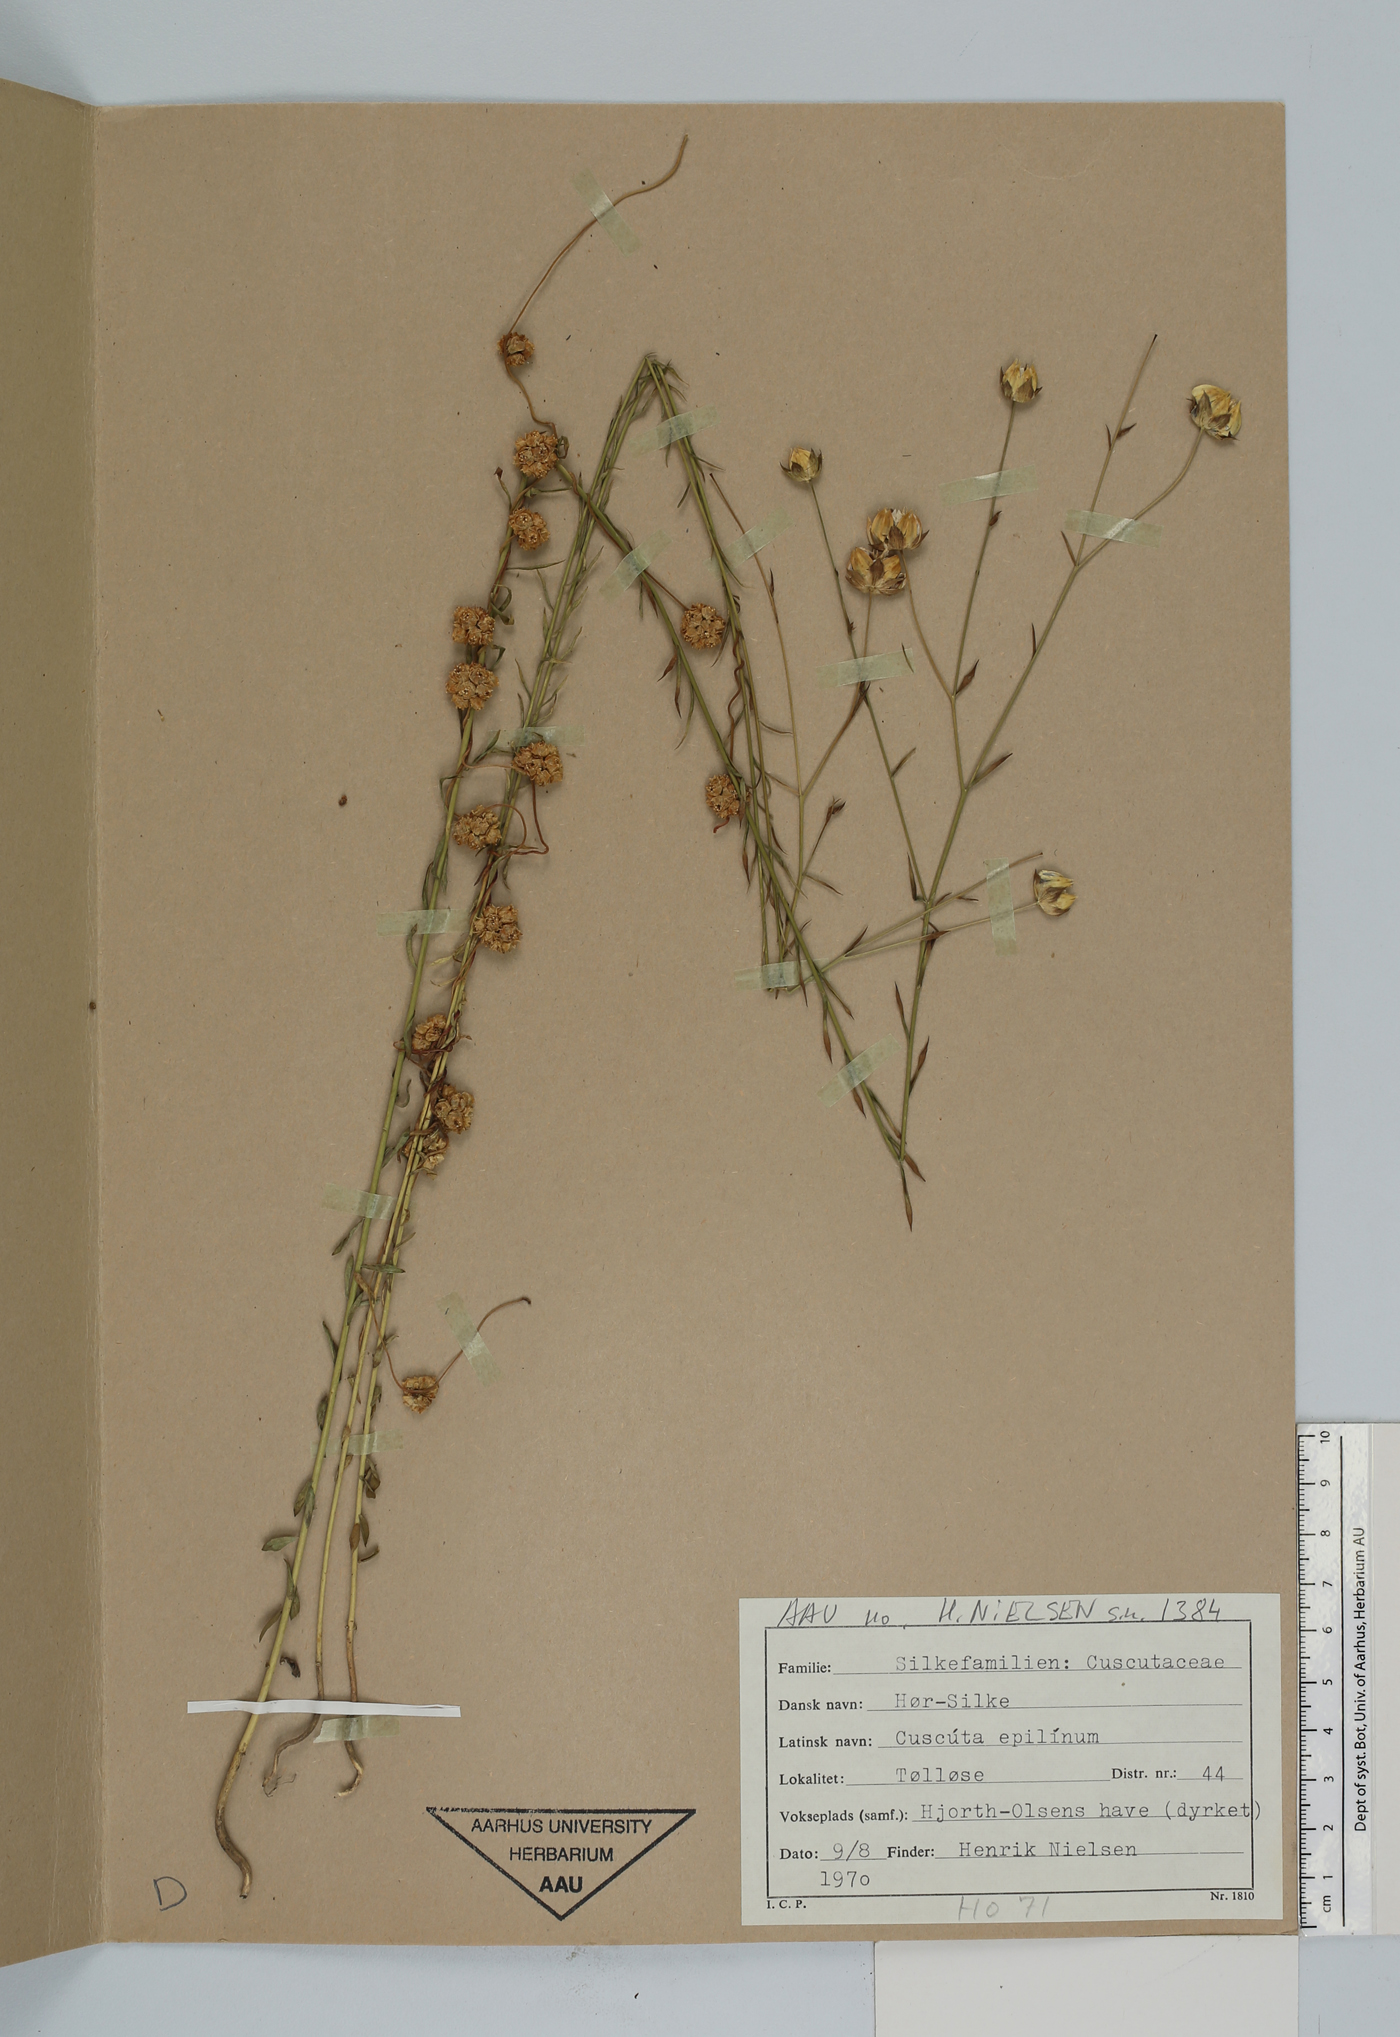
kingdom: Plantae
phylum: Tracheophyta
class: Magnoliopsida
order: Solanales
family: Convolvulaceae
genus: Cuscuta
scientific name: Cuscuta epilinum
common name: Flax dodder
